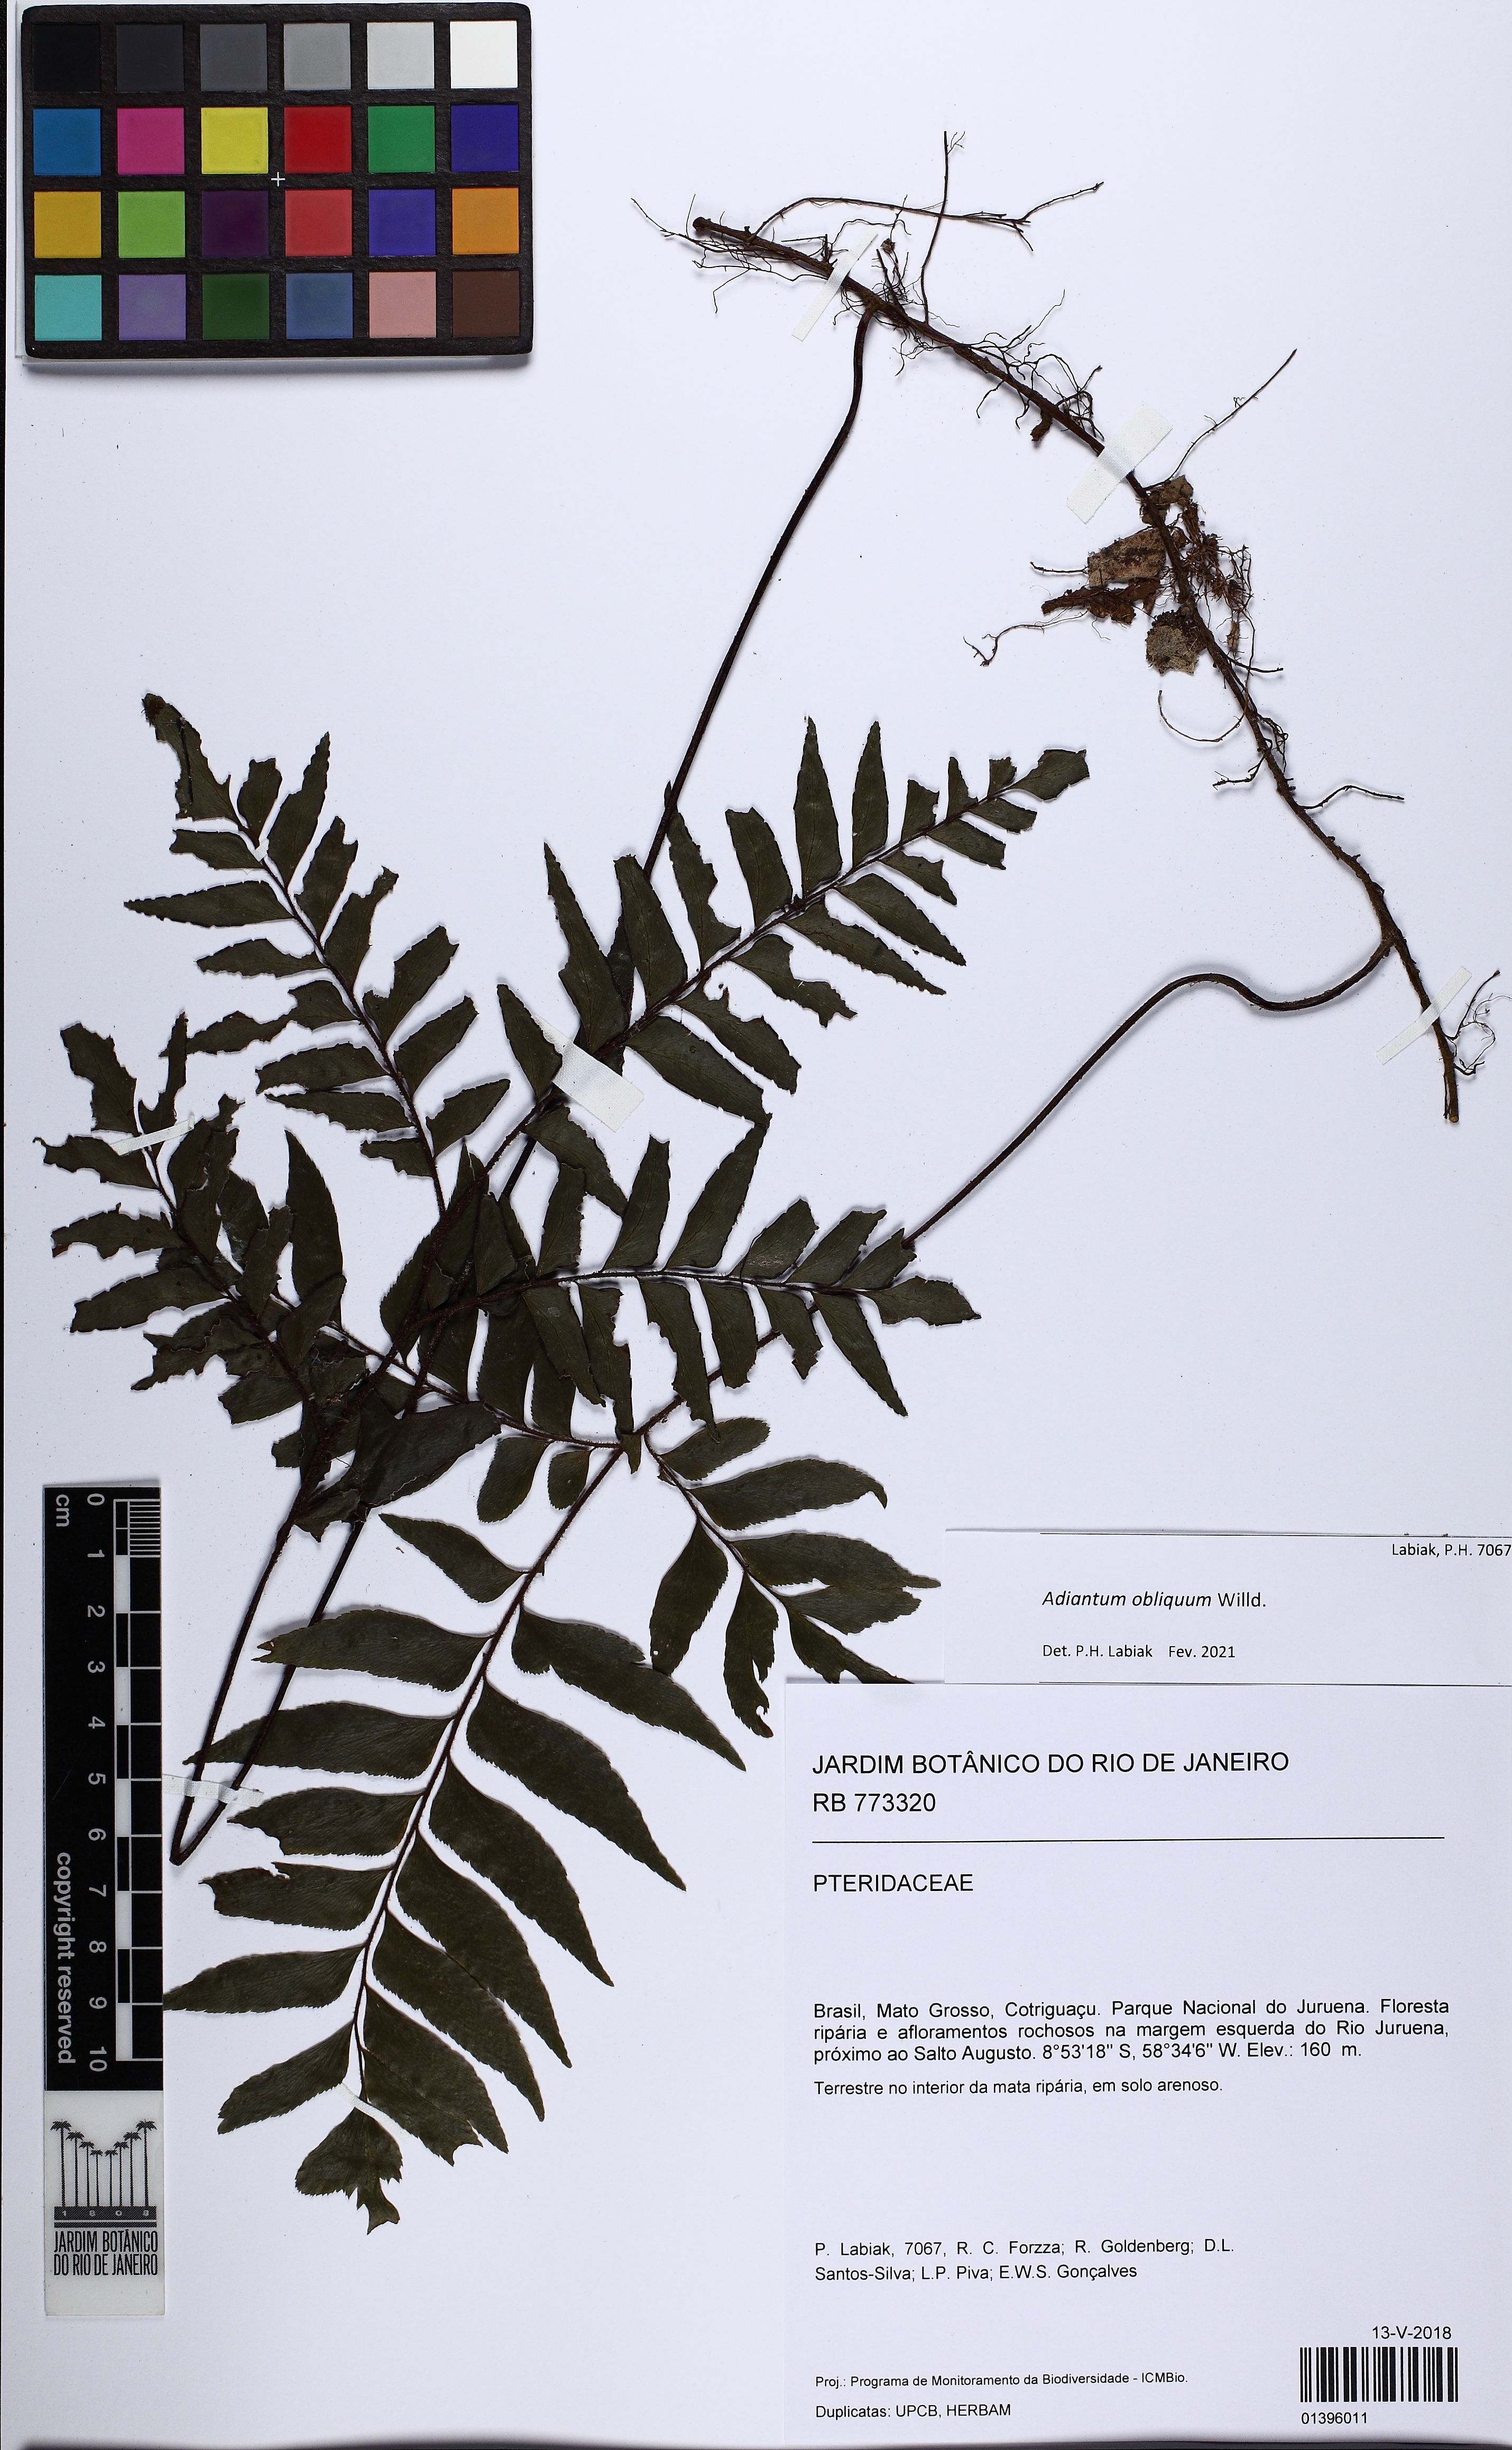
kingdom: Plantae
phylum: Tracheophyta
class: Polypodiopsida
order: Polypodiales
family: Pteridaceae
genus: Adiantum
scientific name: Adiantum obliquum
